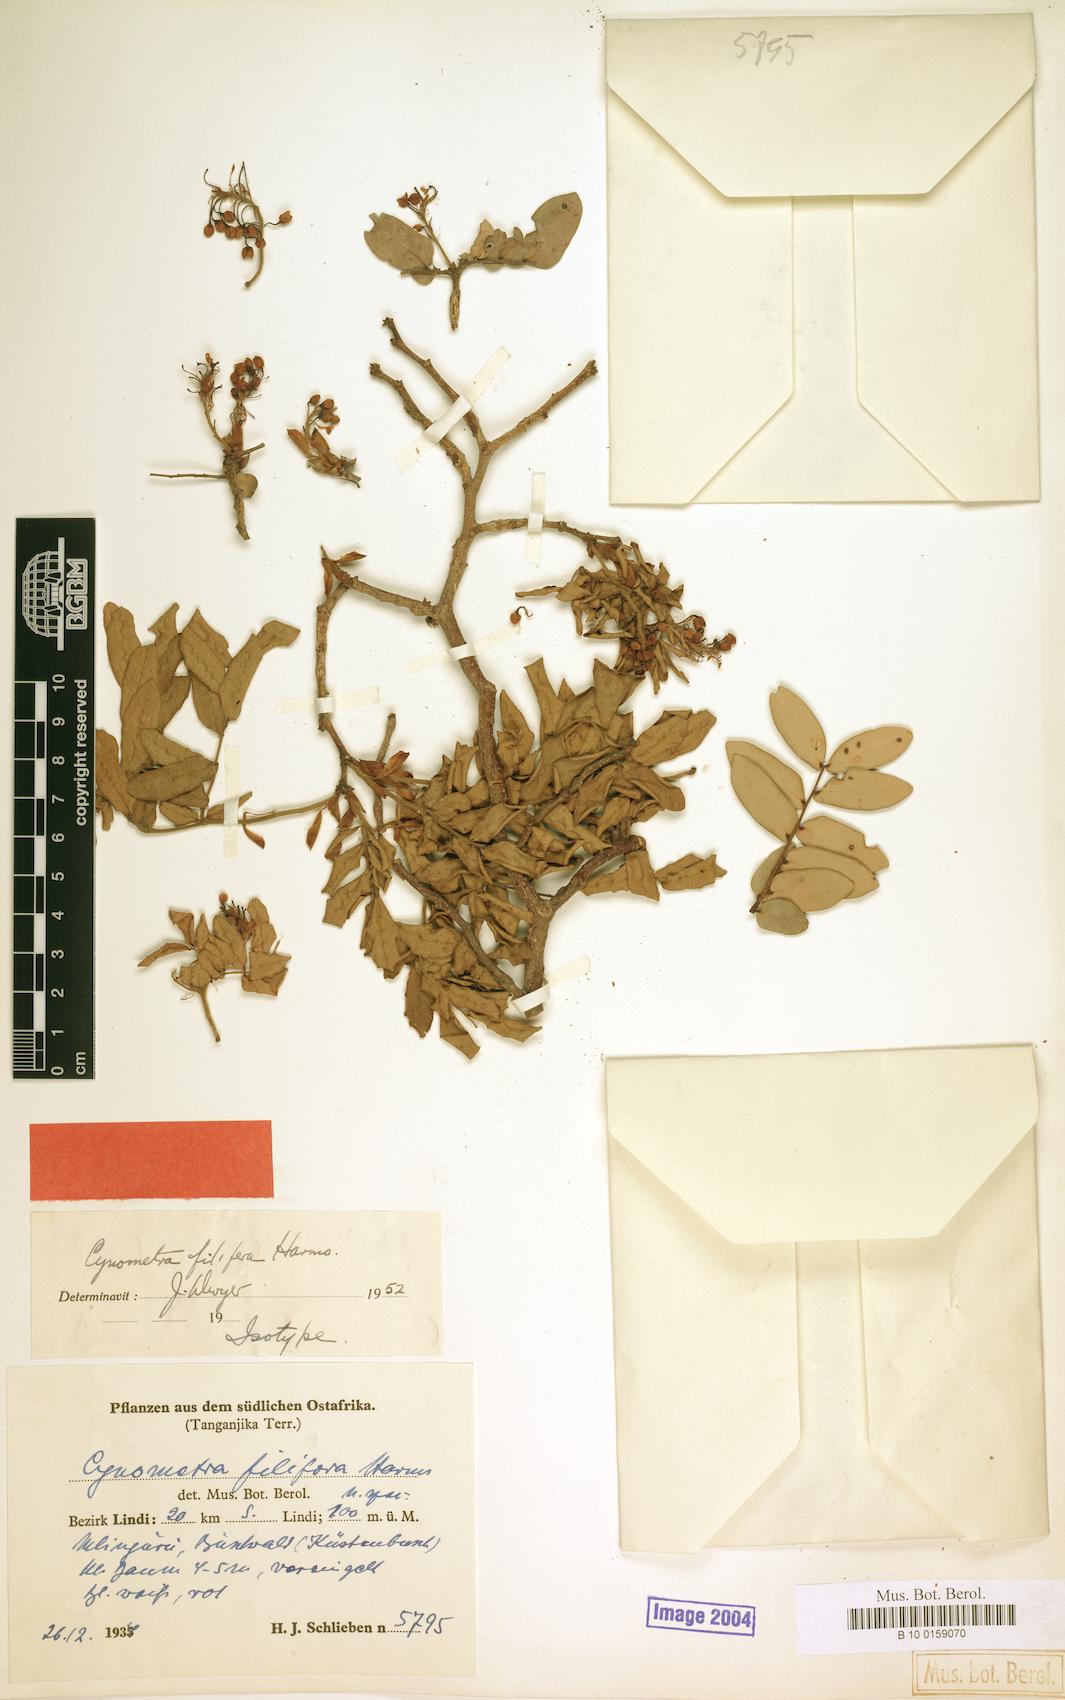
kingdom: Plantae
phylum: Tracheophyta
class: Magnoliopsida
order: Fabales
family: Fabaceae
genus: Cynometra
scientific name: Cynometra filifera
